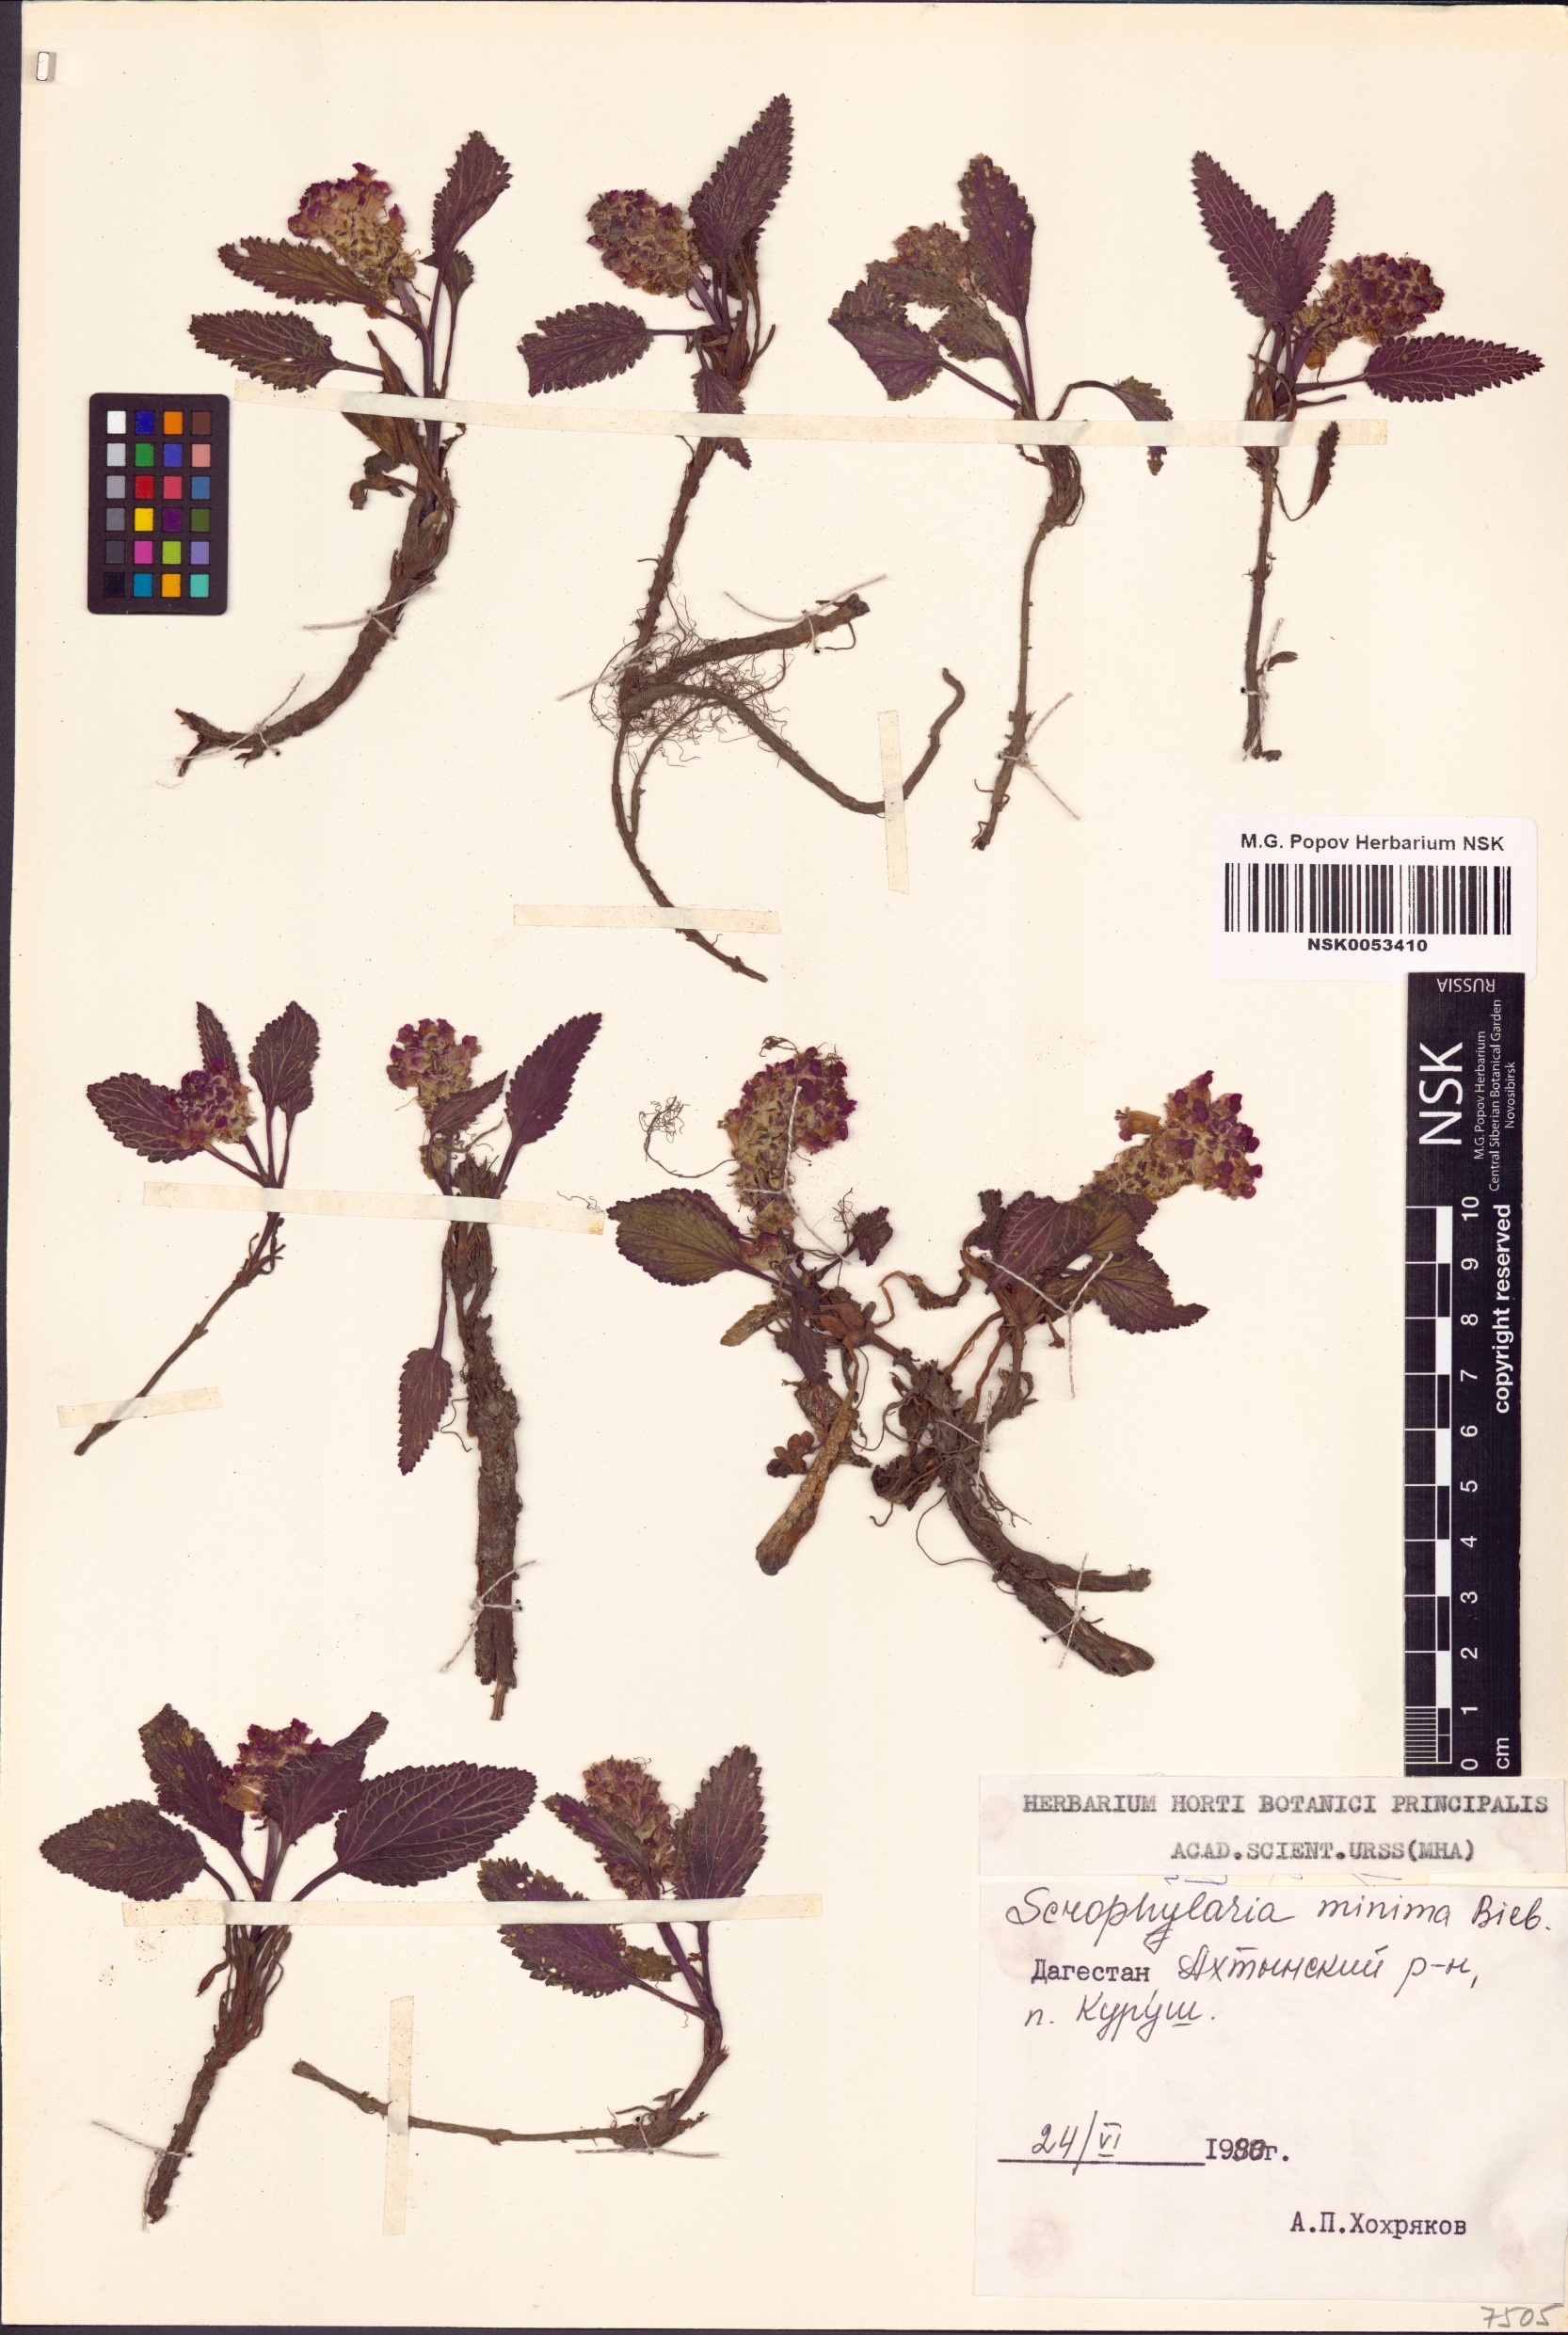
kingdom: Plantae
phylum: Tracheophyta
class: Magnoliopsida
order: Lamiales
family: Scrophulariaceae
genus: Scrophularia
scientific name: Scrophularia minima
